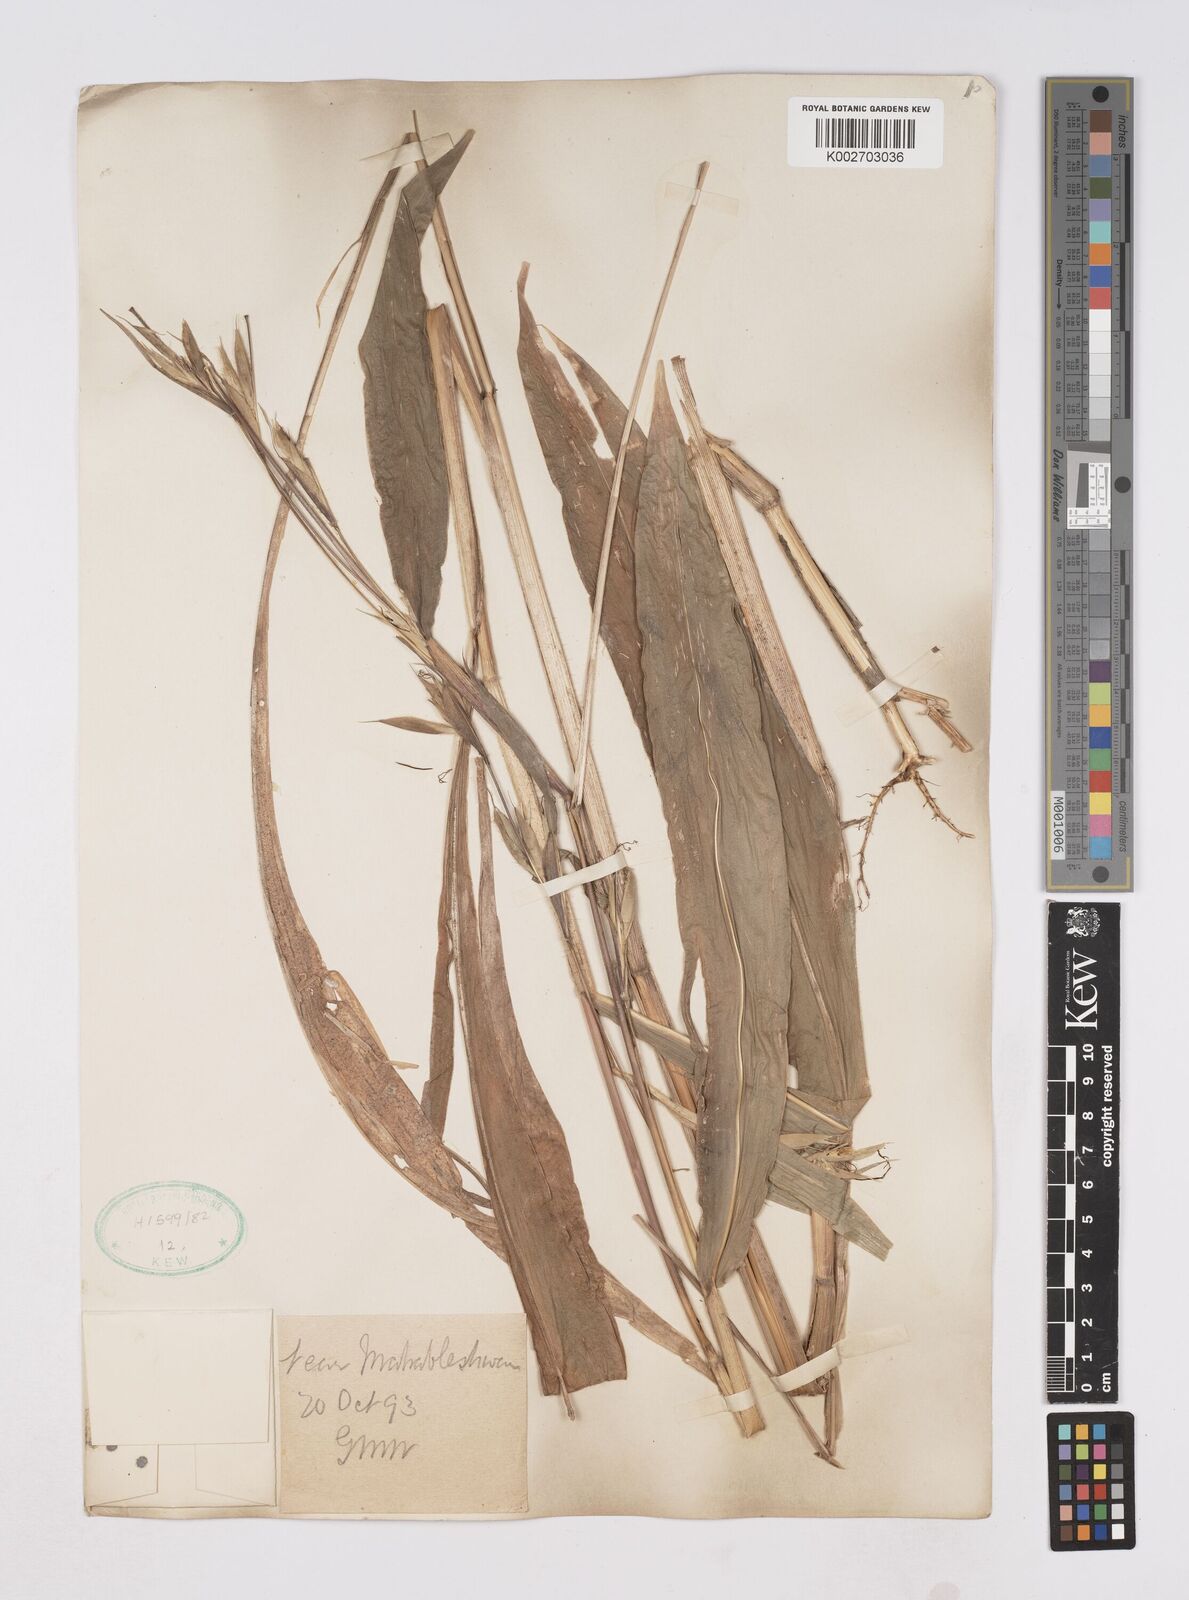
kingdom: Plantae
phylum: Tracheophyta
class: Liliopsida
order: Poales
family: Poaceae
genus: Polytoca
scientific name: Polytoca gigantea
